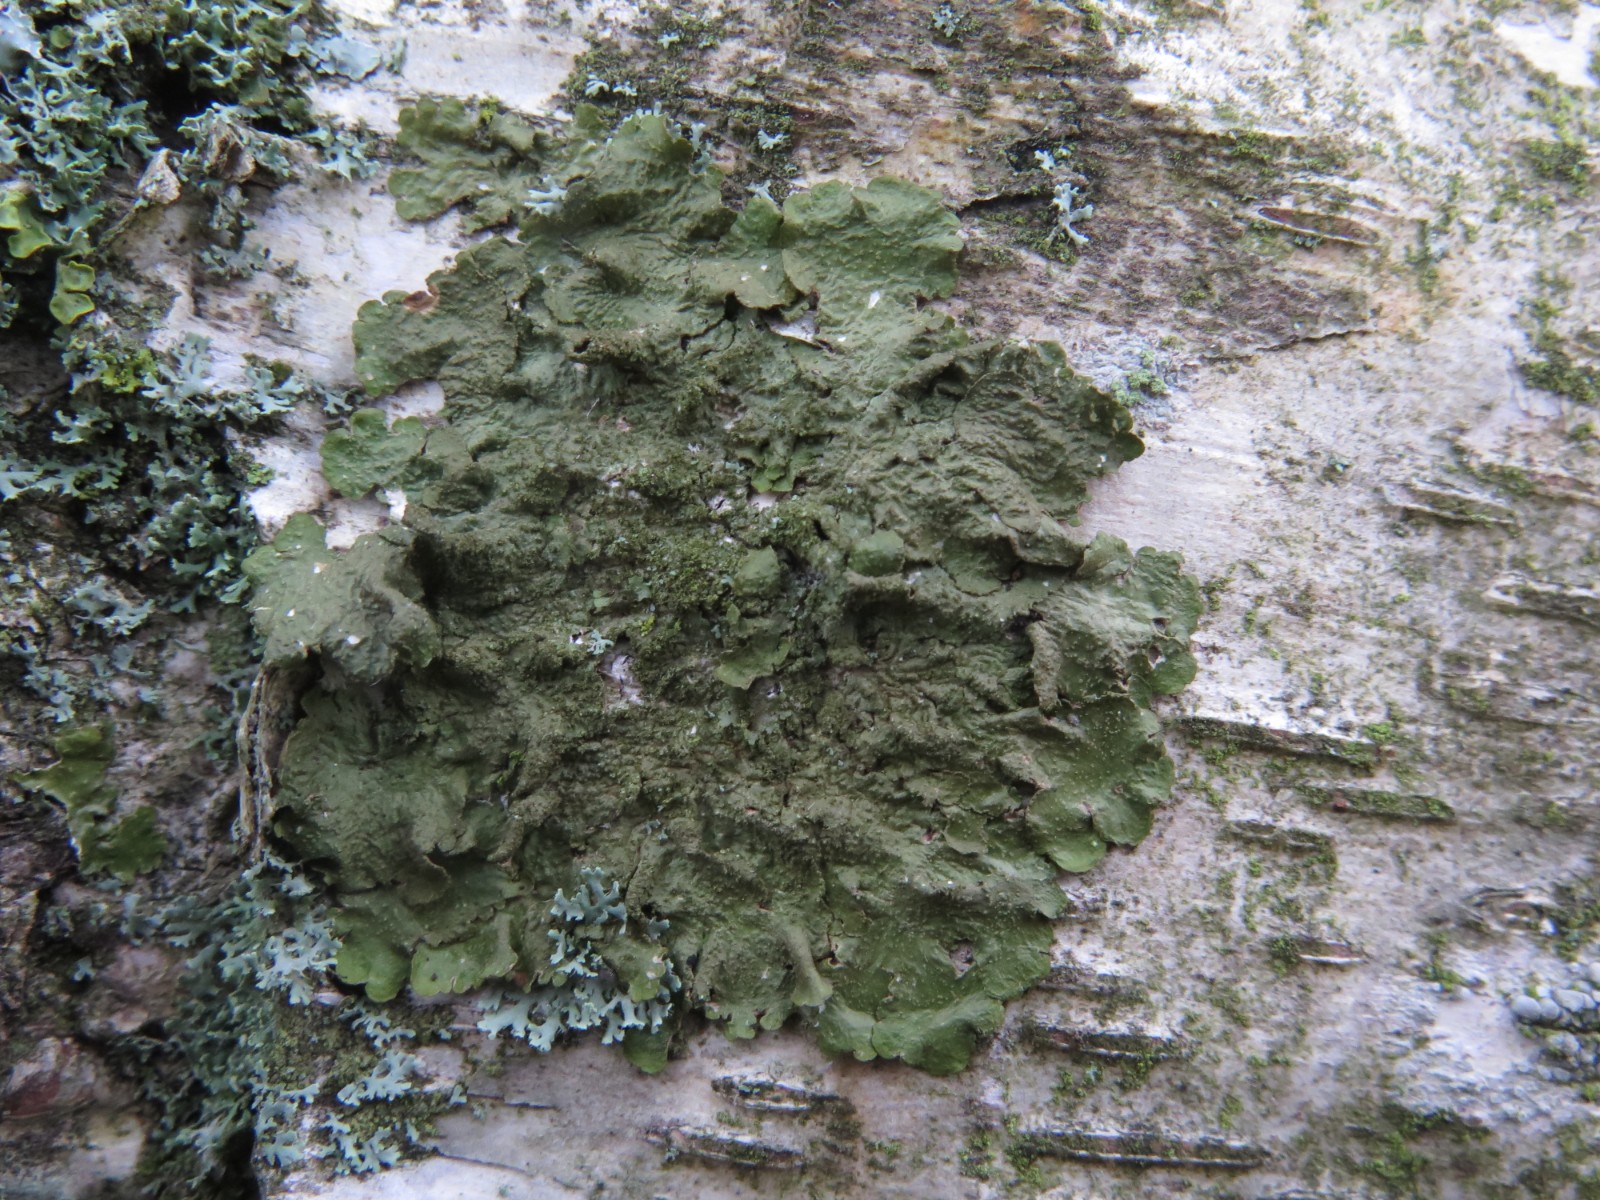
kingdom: Fungi
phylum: Ascomycota
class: Lecanoromycetes
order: Lecanorales
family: Parmeliaceae
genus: Melanelixia
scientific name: Melanelixia subaurifera
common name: guldpudret skållav
